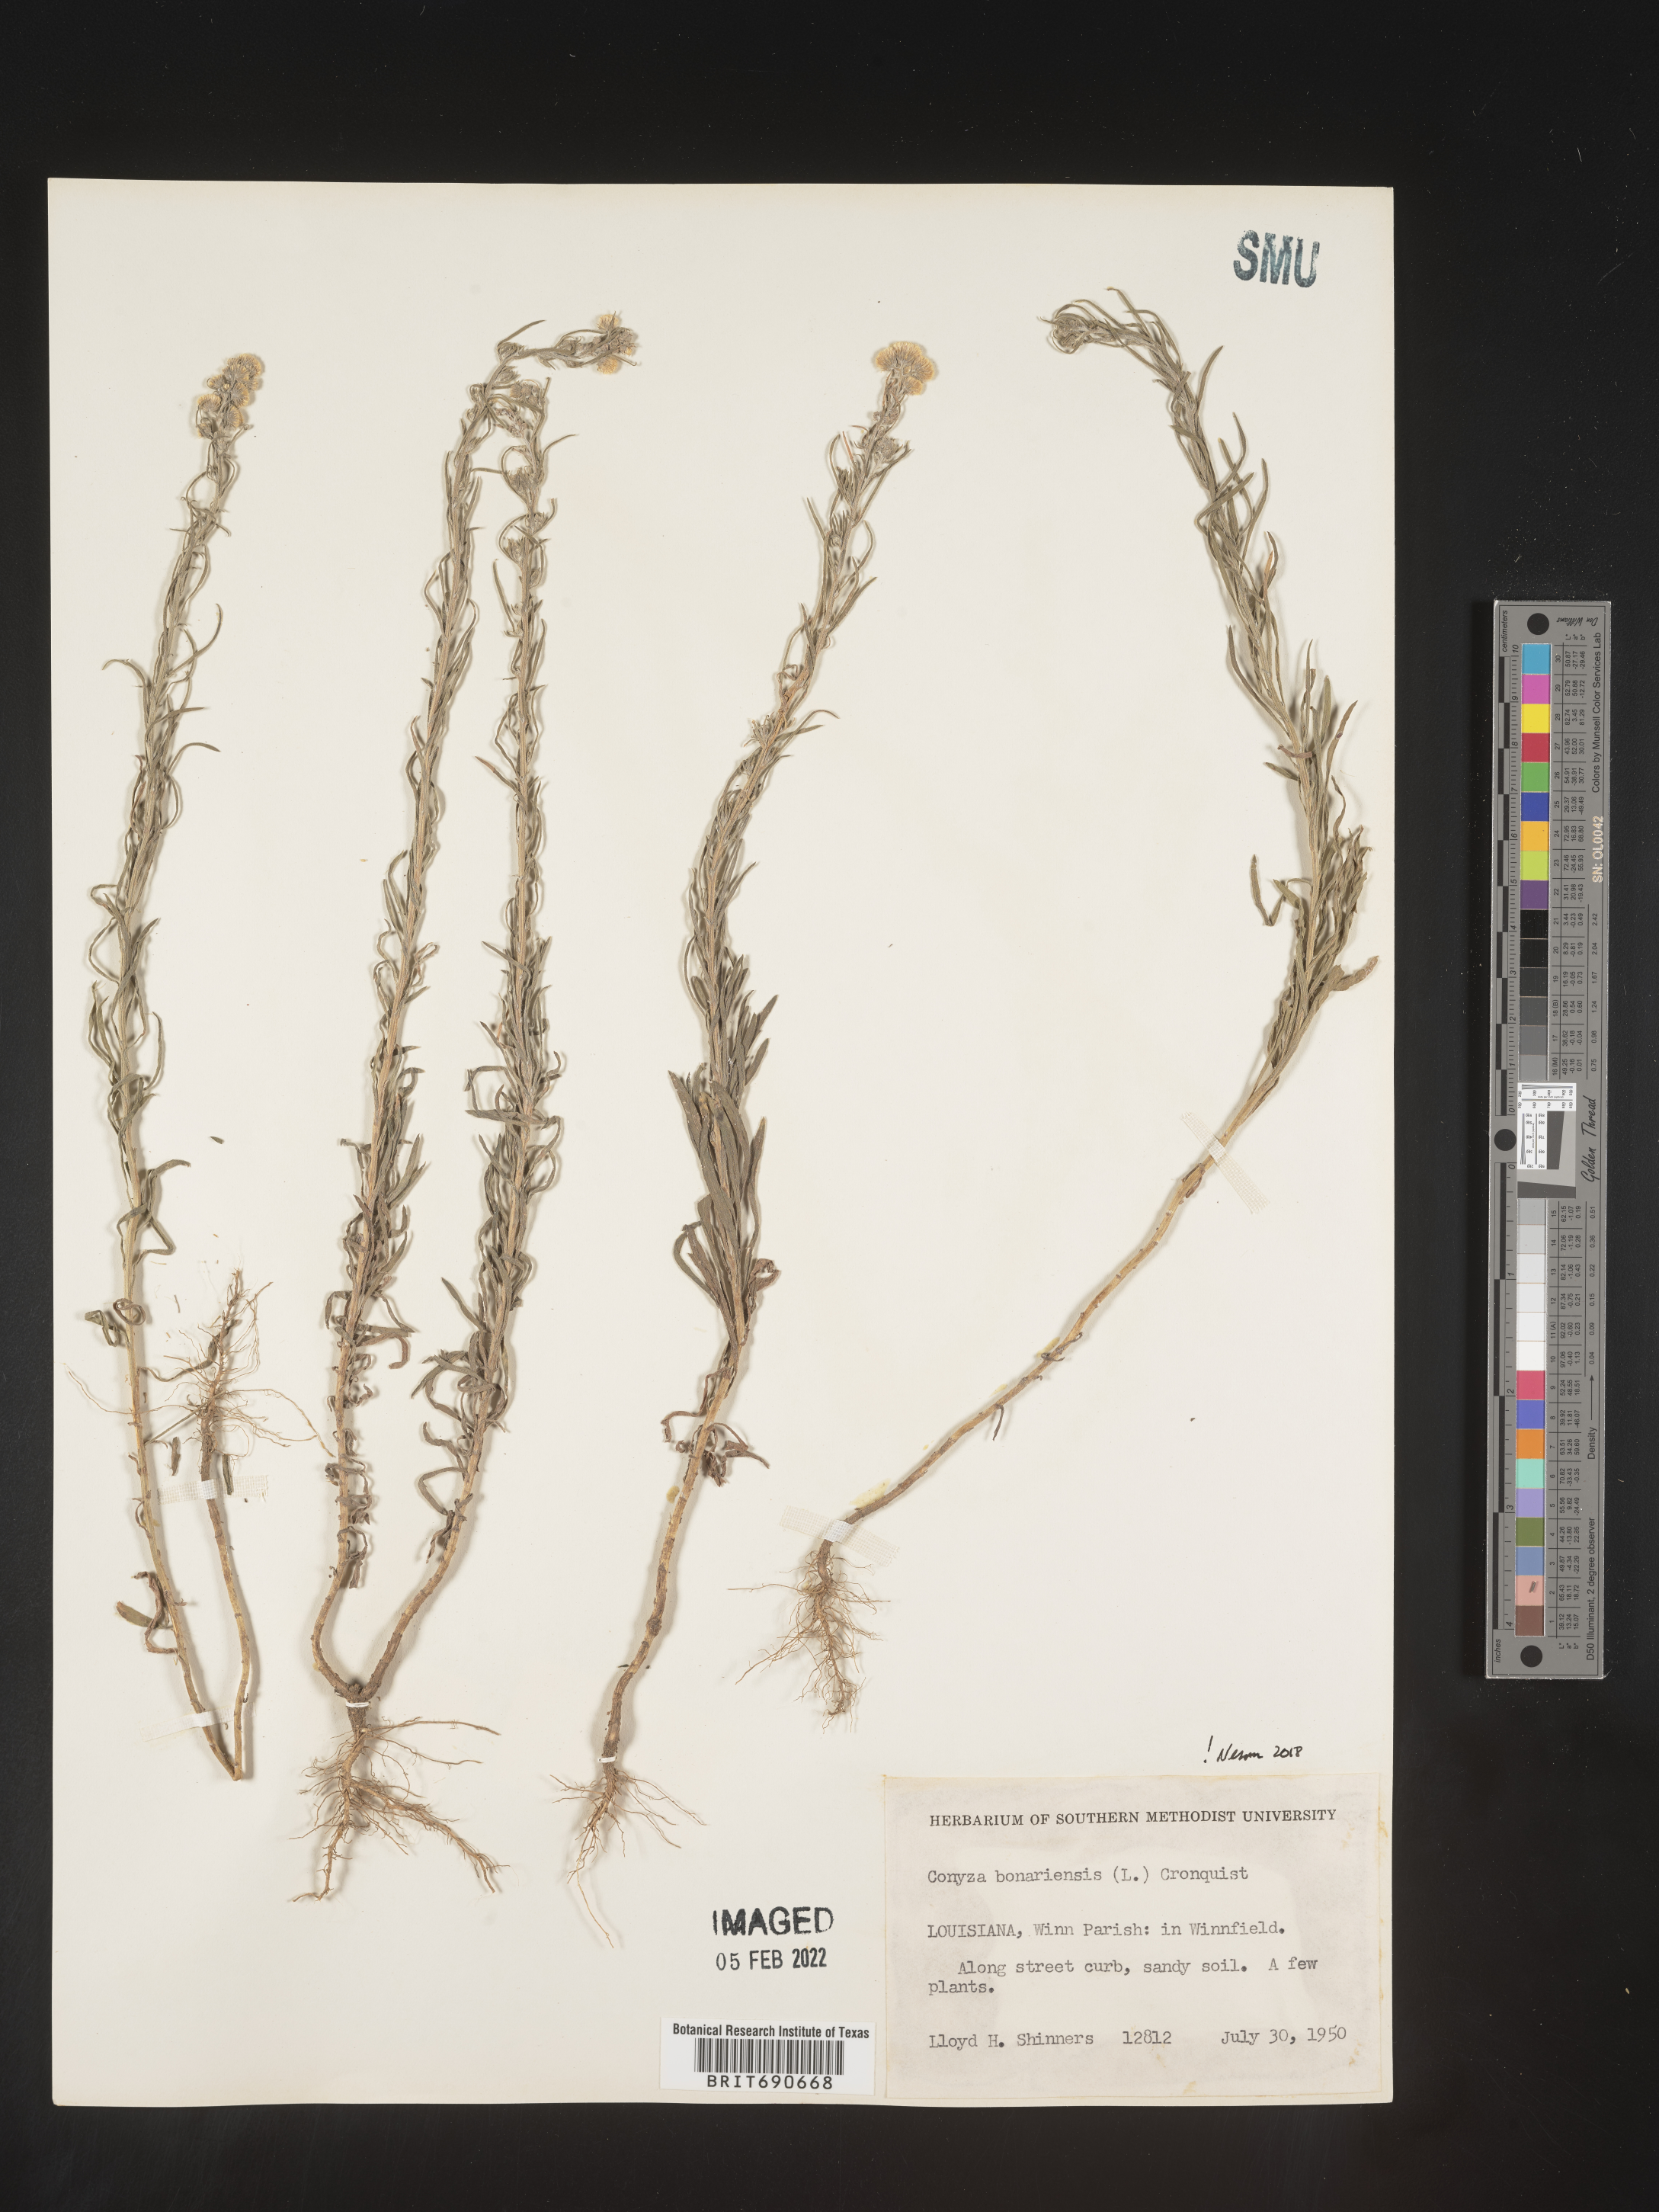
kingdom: Plantae
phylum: Tracheophyta
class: Magnoliopsida
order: Asterales
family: Asteraceae
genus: Erigeron
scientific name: Erigeron bonariensis
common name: Argentine fleabane
